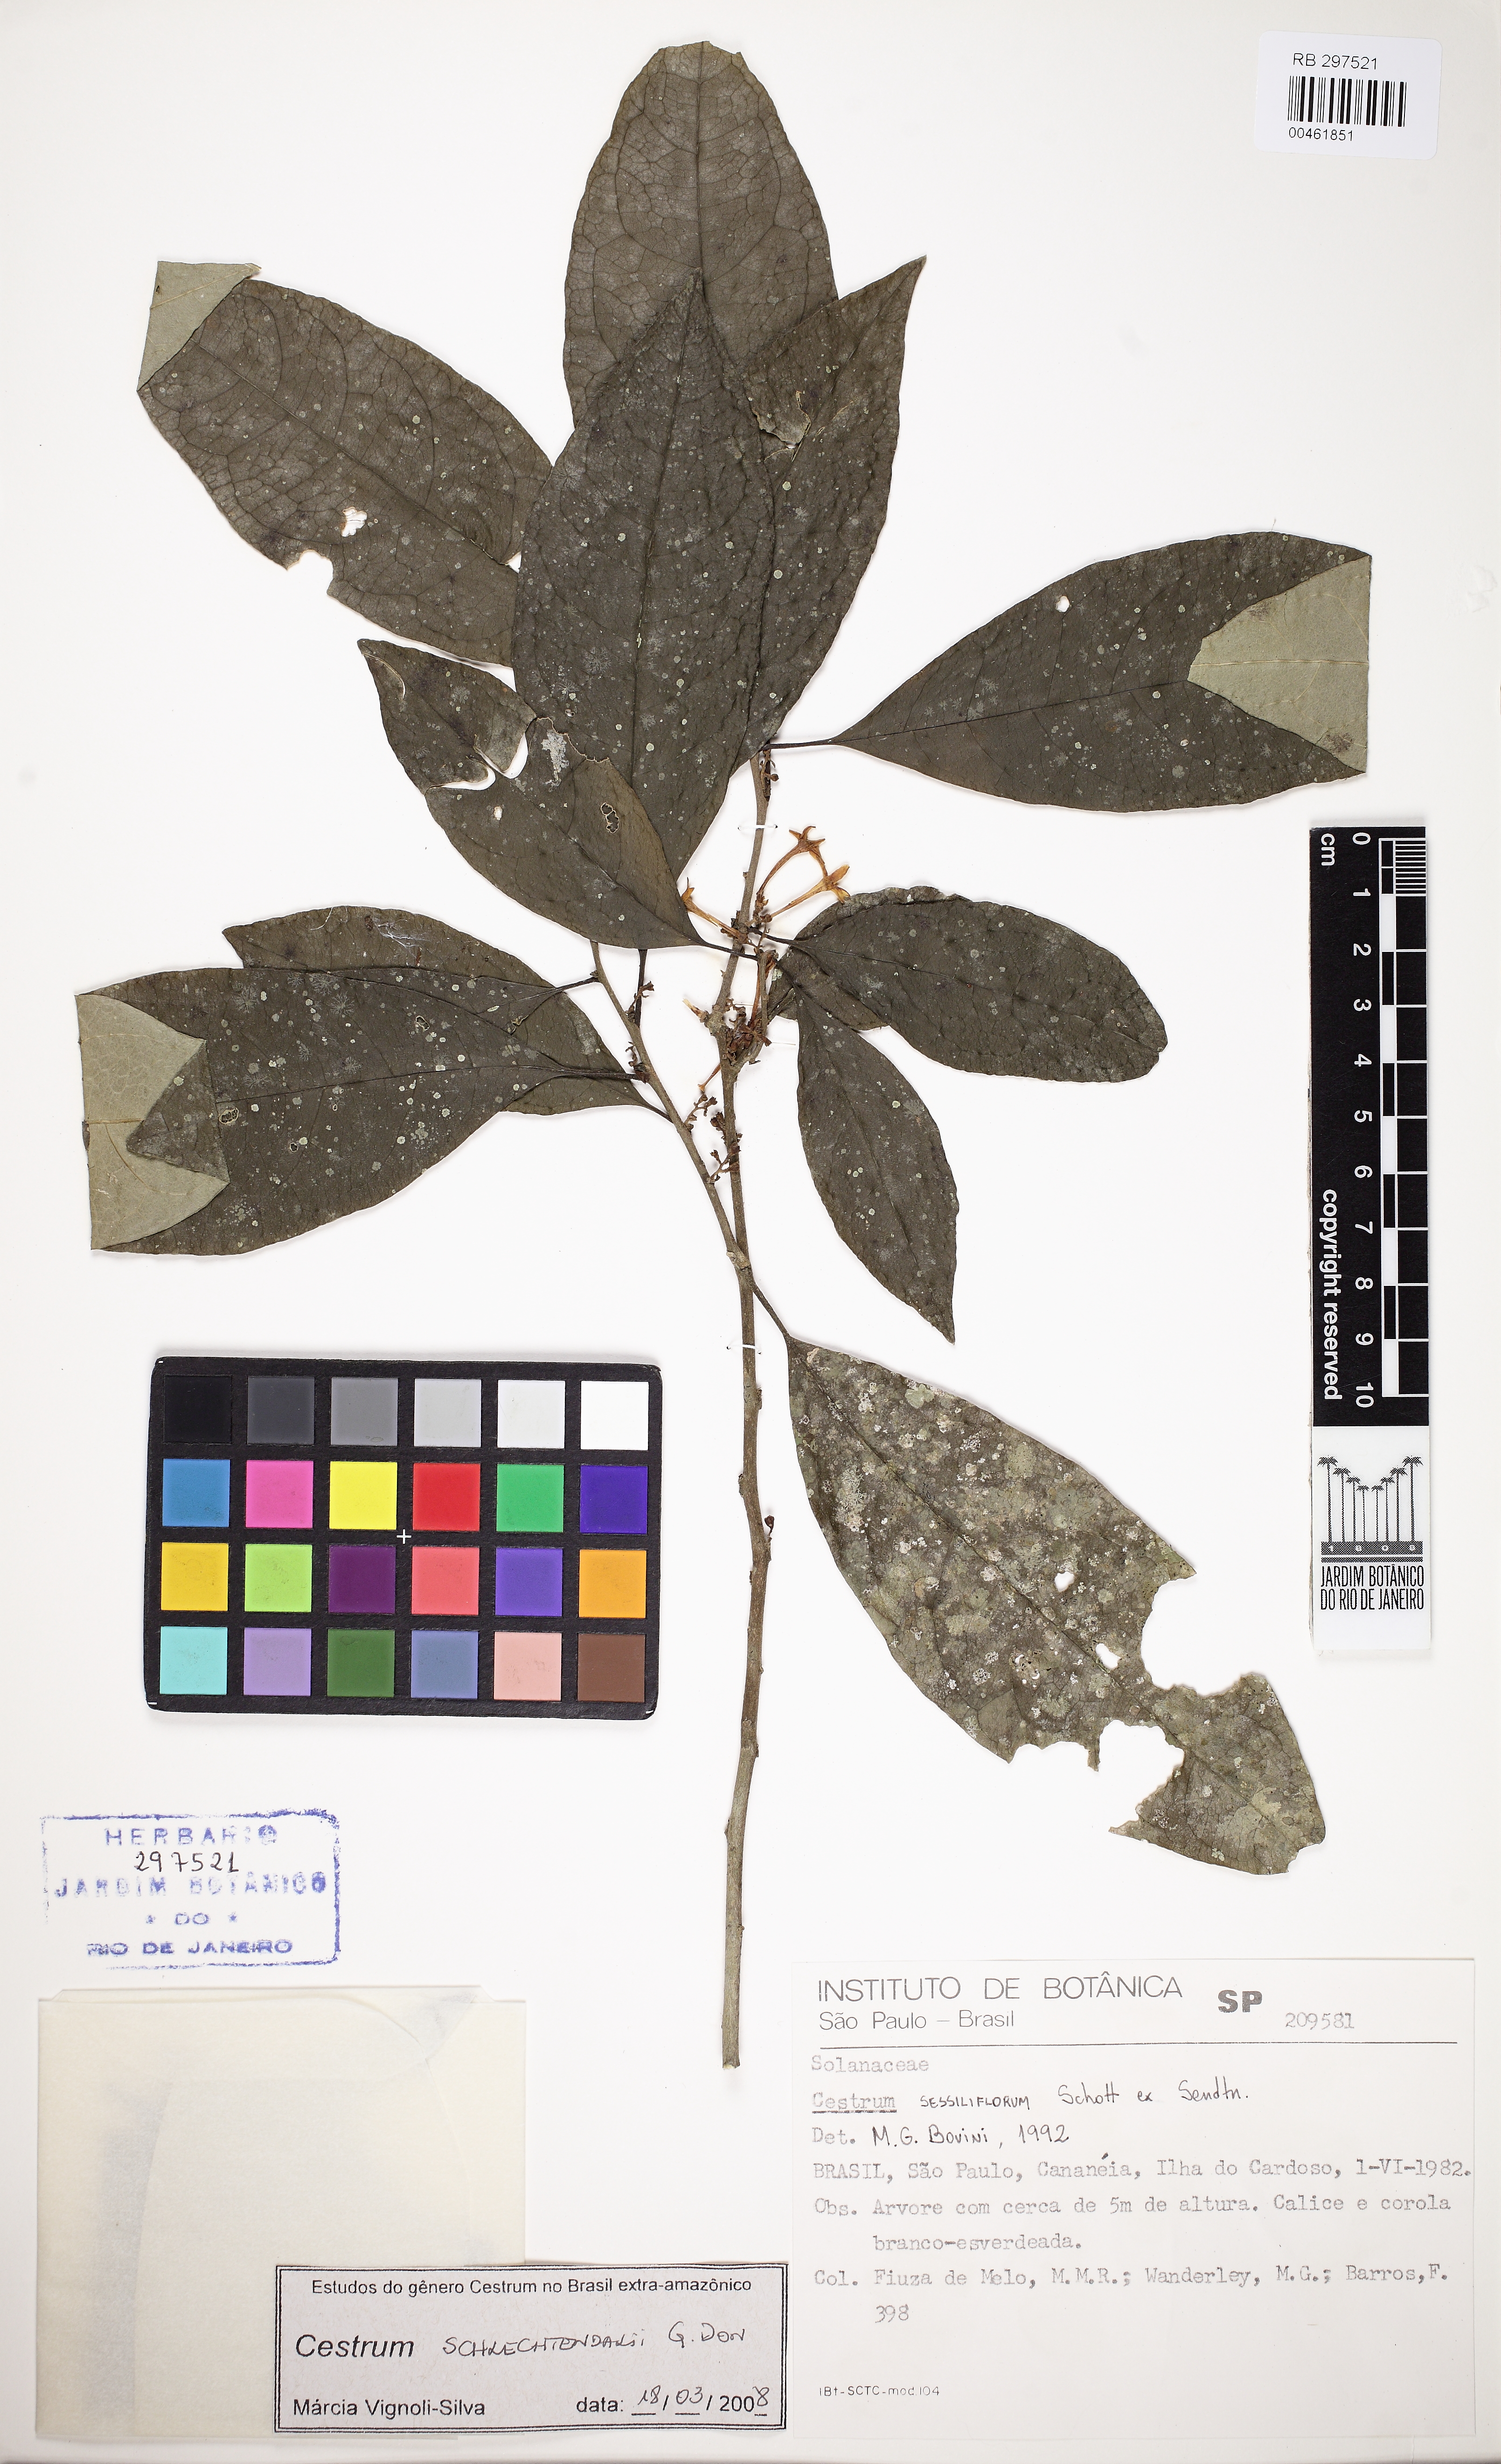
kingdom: Plantae
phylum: Tracheophyta
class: Magnoliopsida
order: Solanales
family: Solanaceae
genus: Cestrum
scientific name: Cestrum schlechtendalii
